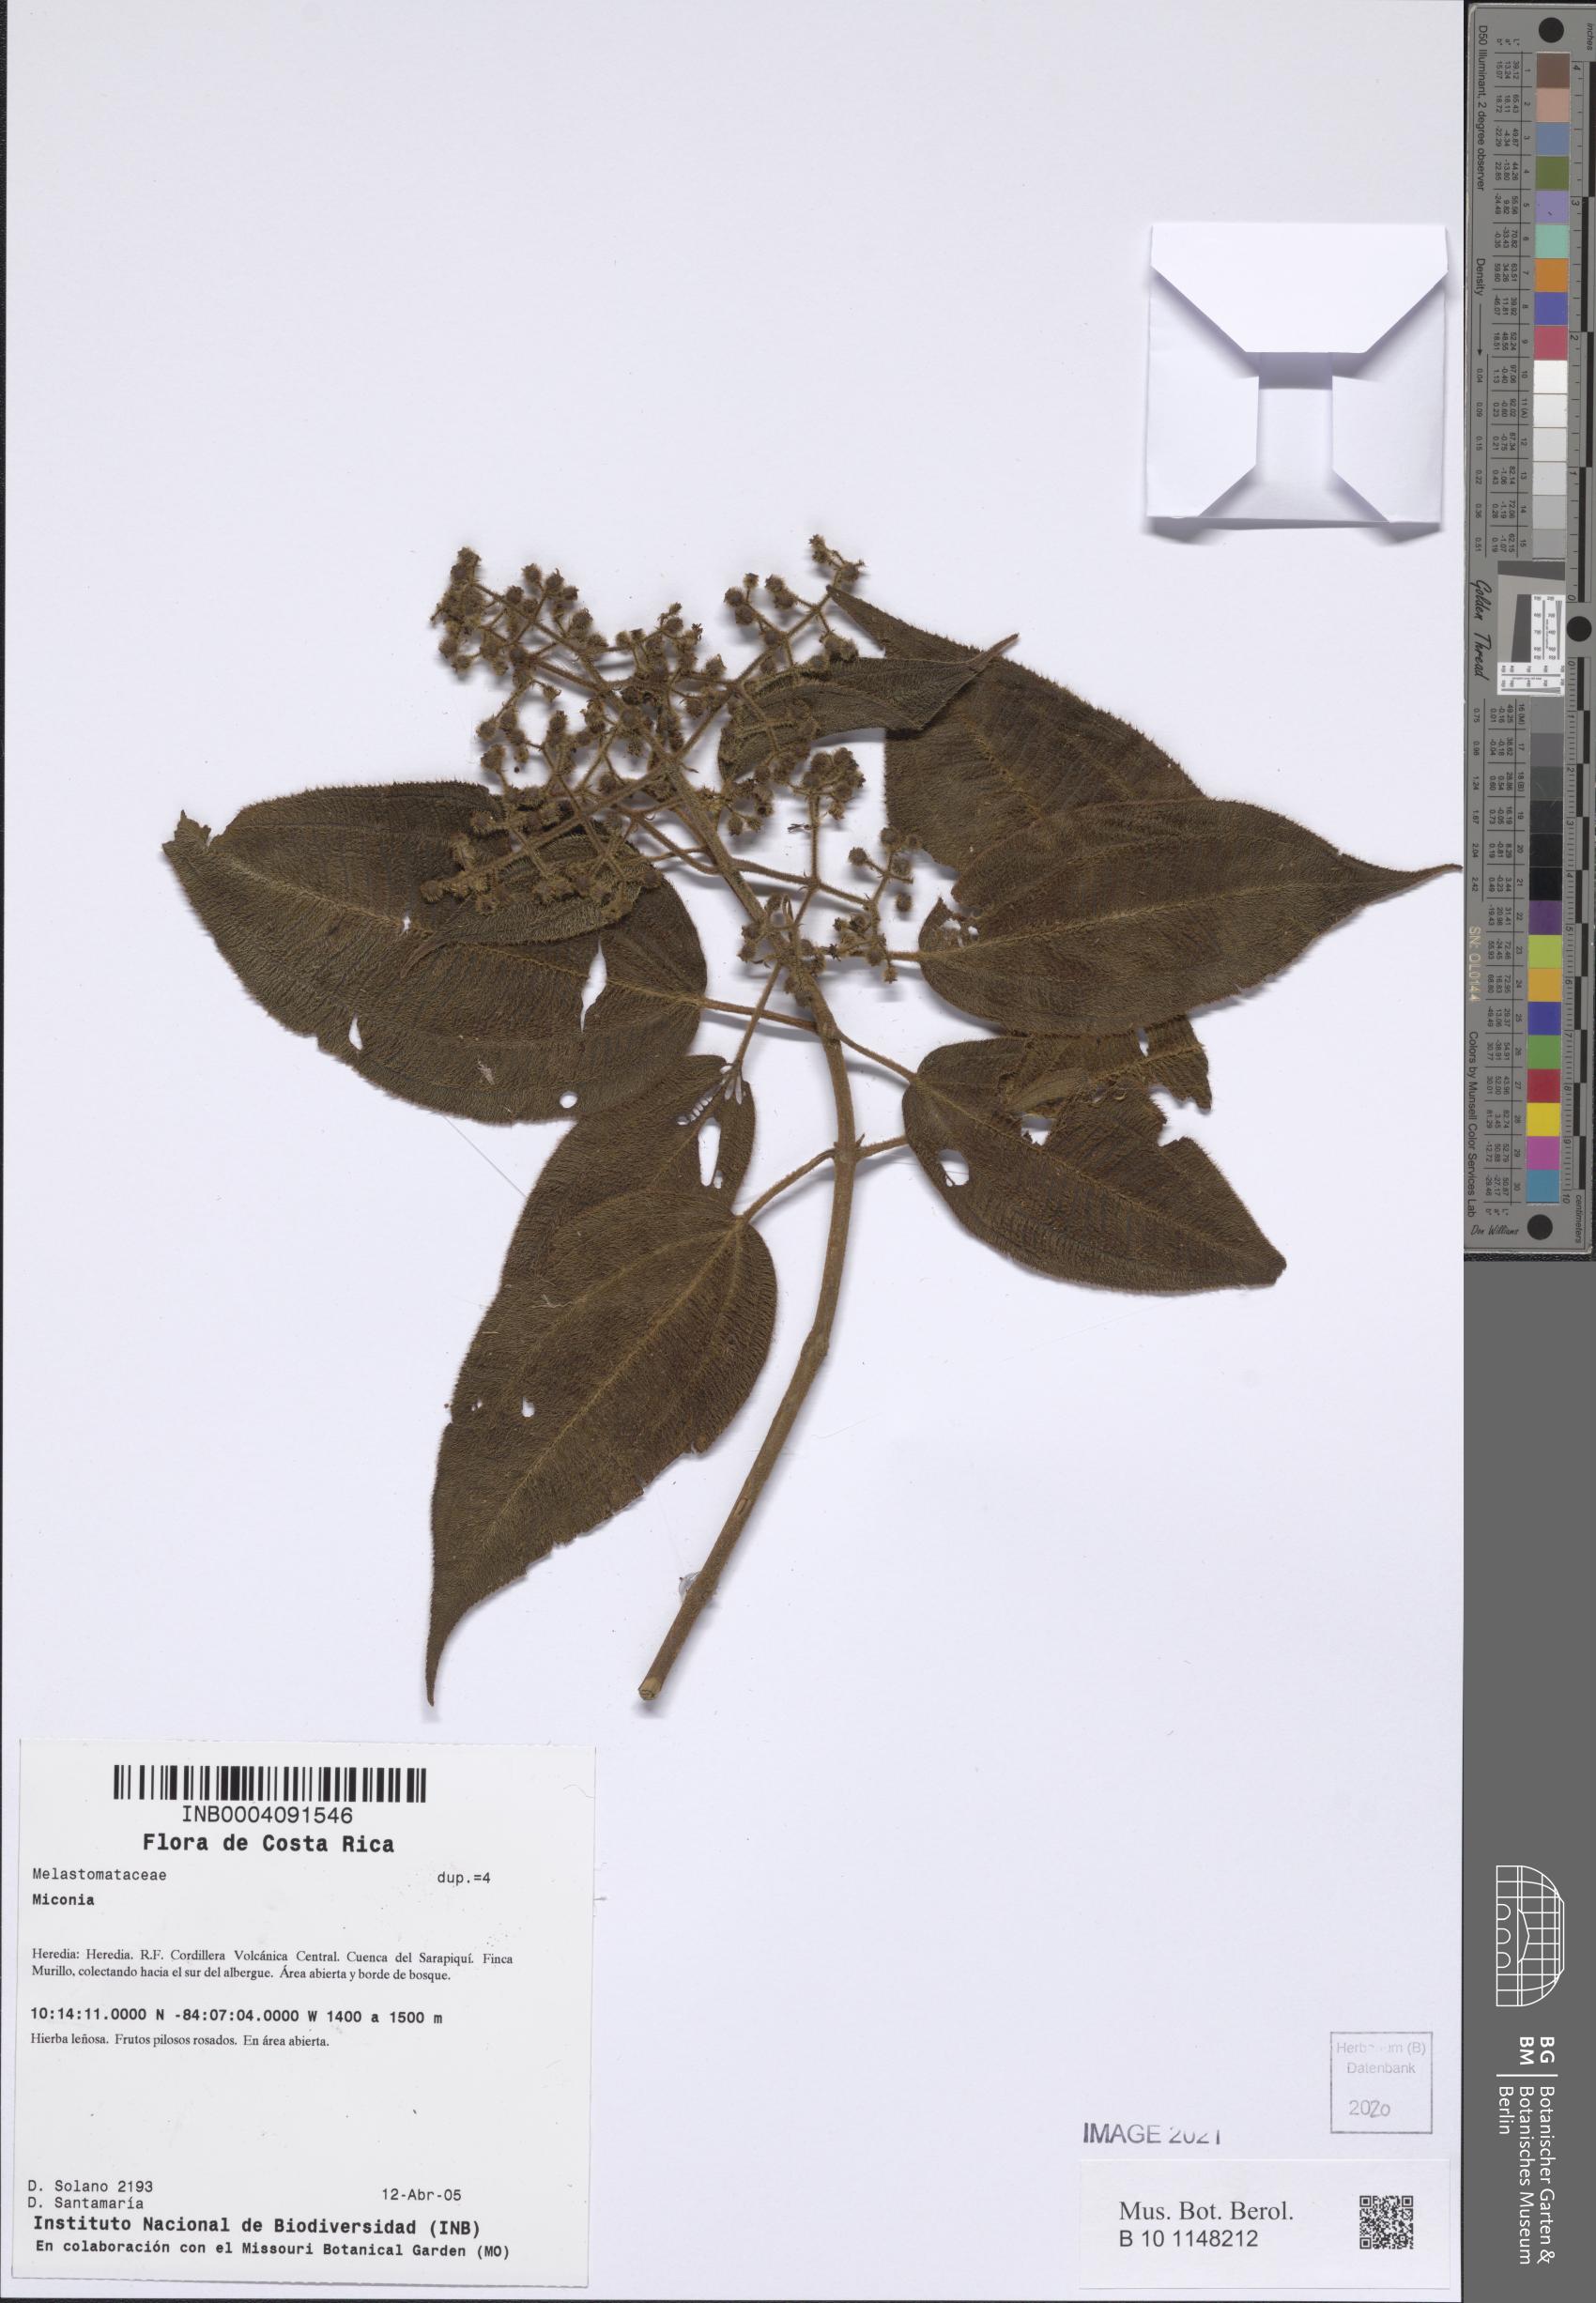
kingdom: Plantae
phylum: Tracheophyta
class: Magnoliopsida
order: Myrtales
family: Melastomataceae
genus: Miconia
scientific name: Miconia
